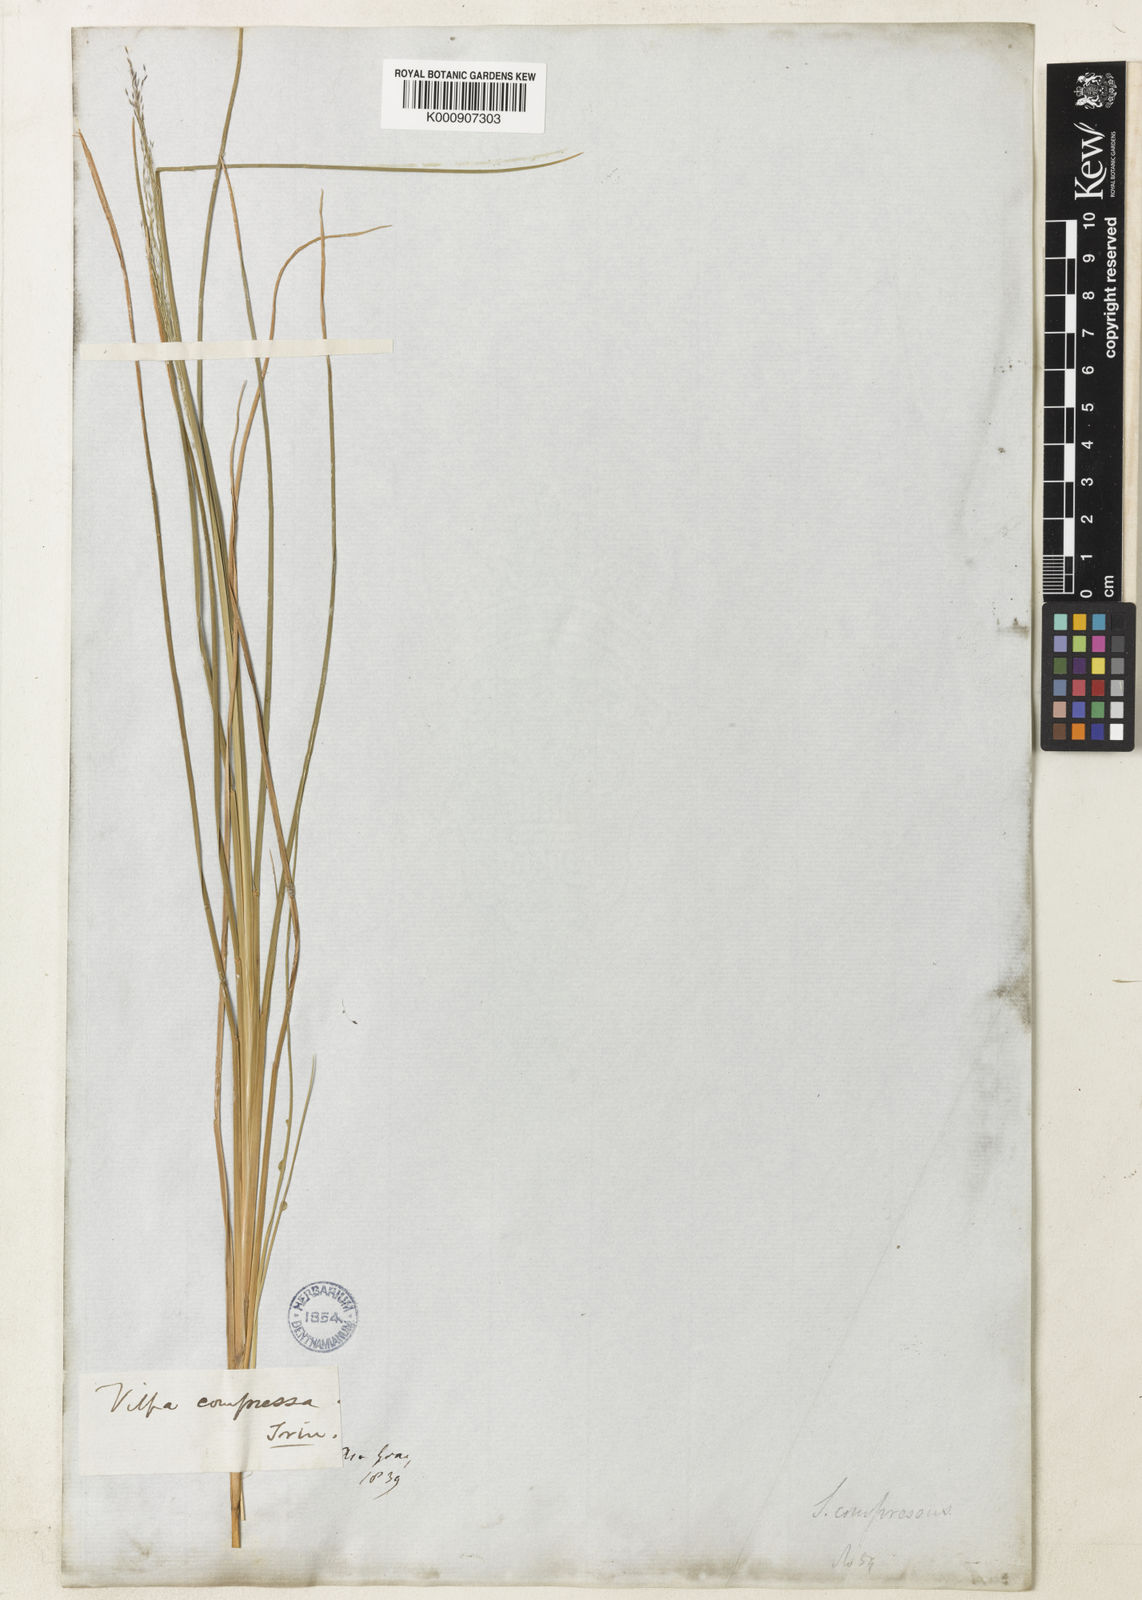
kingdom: Plantae
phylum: Tracheophyta
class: Liliopsida
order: Poales
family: Poaceae
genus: Muhlenbergia
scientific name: Muhlenbergia uniflora
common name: Bog muhly
